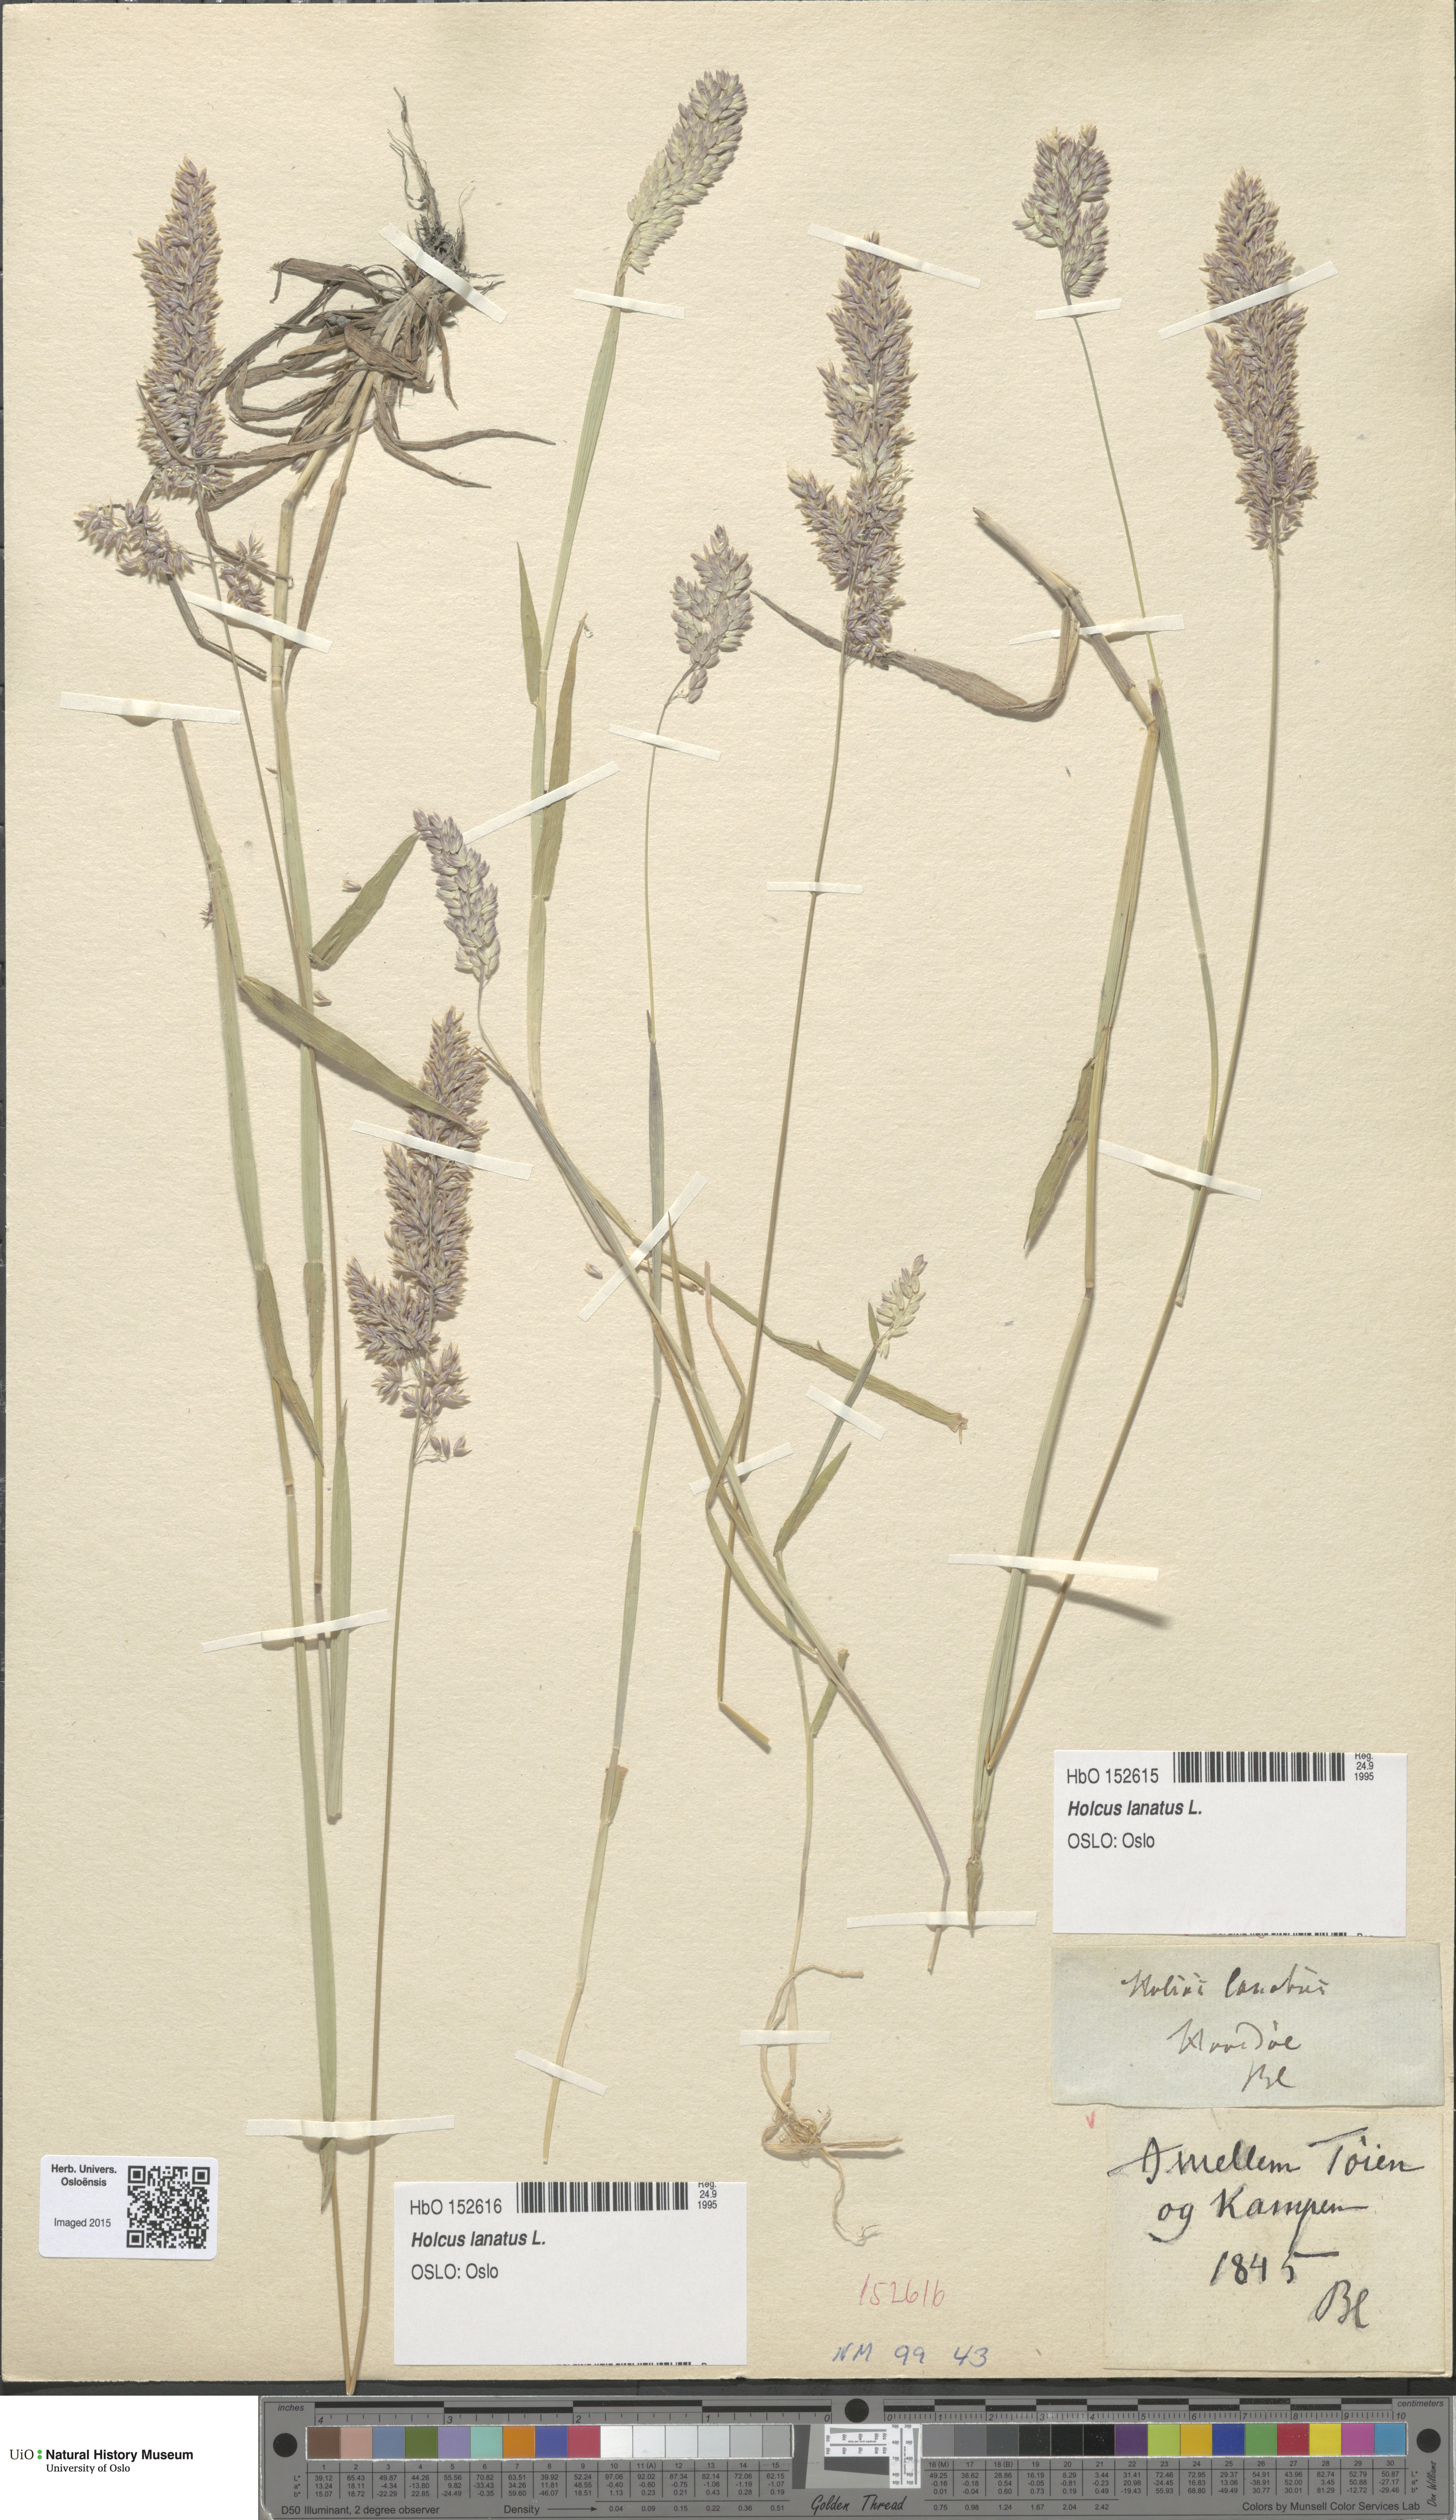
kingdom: Plantae
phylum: Tracheophyta
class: Liliopsida
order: Poales
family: Poaceae
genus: Holcus
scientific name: Holcus lanatus
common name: Yorkshire-fog
